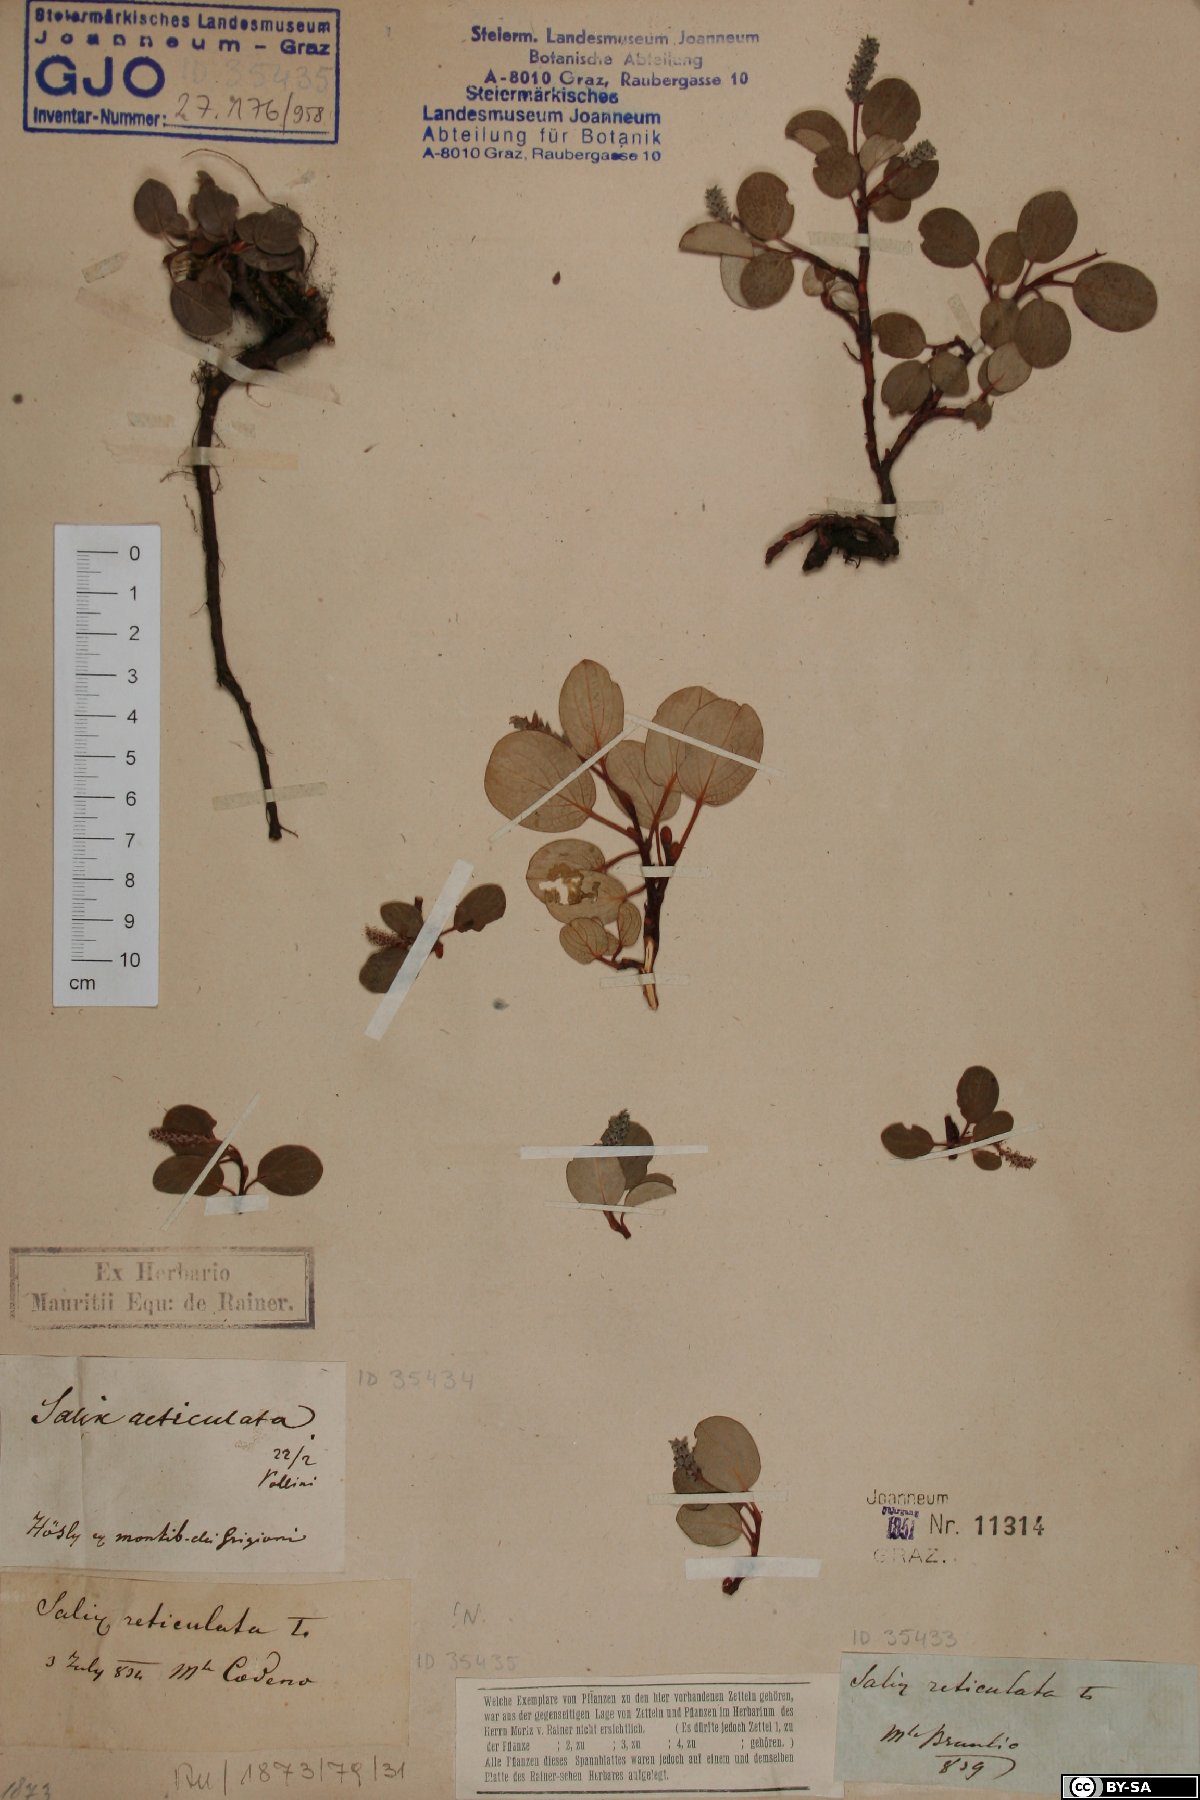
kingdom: Plantae
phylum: Tracheophyta
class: Magnoliopsida
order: Malpighiales
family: Salicaceae
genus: Salix
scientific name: Salix reticulata
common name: Net-leaved willow
